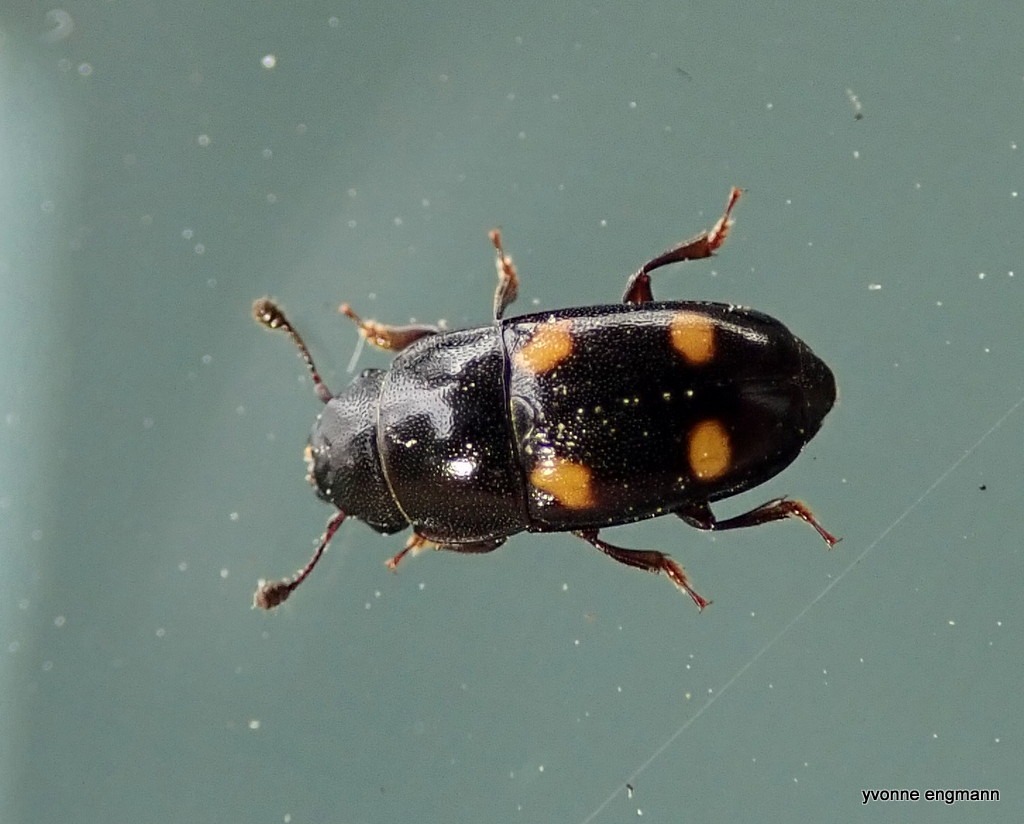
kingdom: Animalia
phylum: Arthropoda
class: Insecta
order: Coleoptera
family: Nitidulidae
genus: Glischrochilus
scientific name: Glischrochilus hortensis
